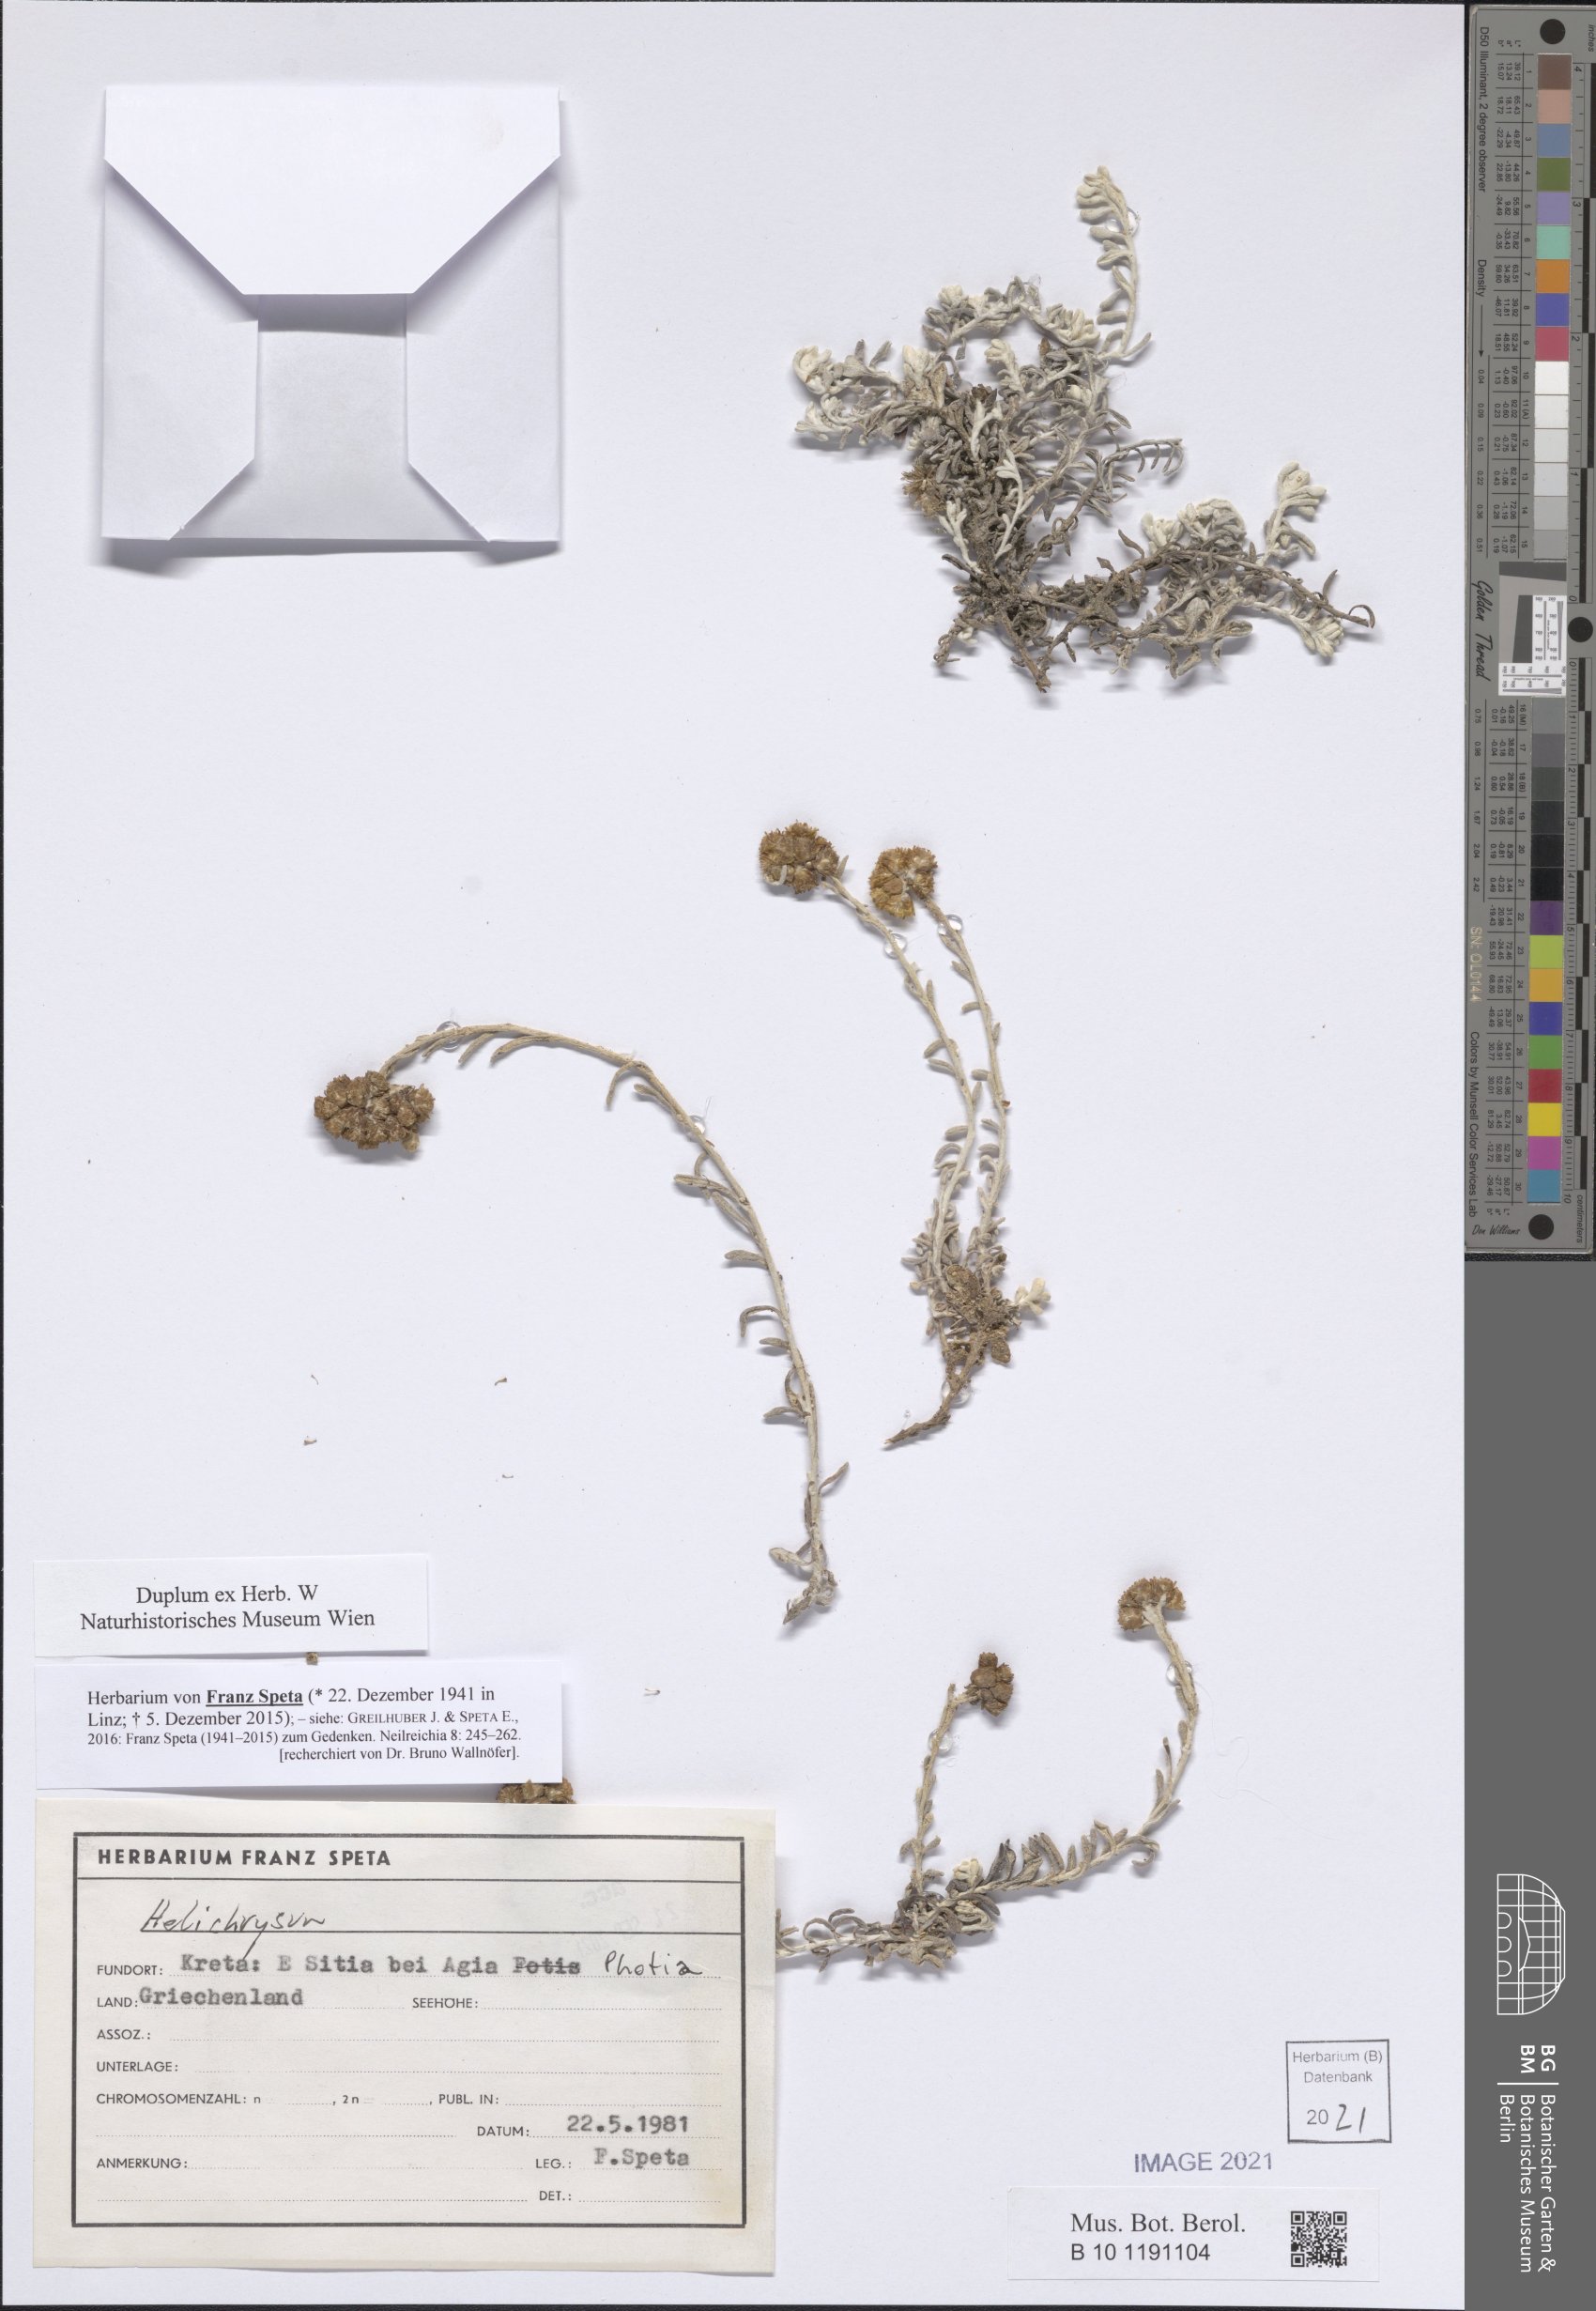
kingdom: Plantae
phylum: Tracheophyta
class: Magnoliopsida
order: Asterales
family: Asteraceae
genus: Helichrysum
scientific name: Helichrysum
